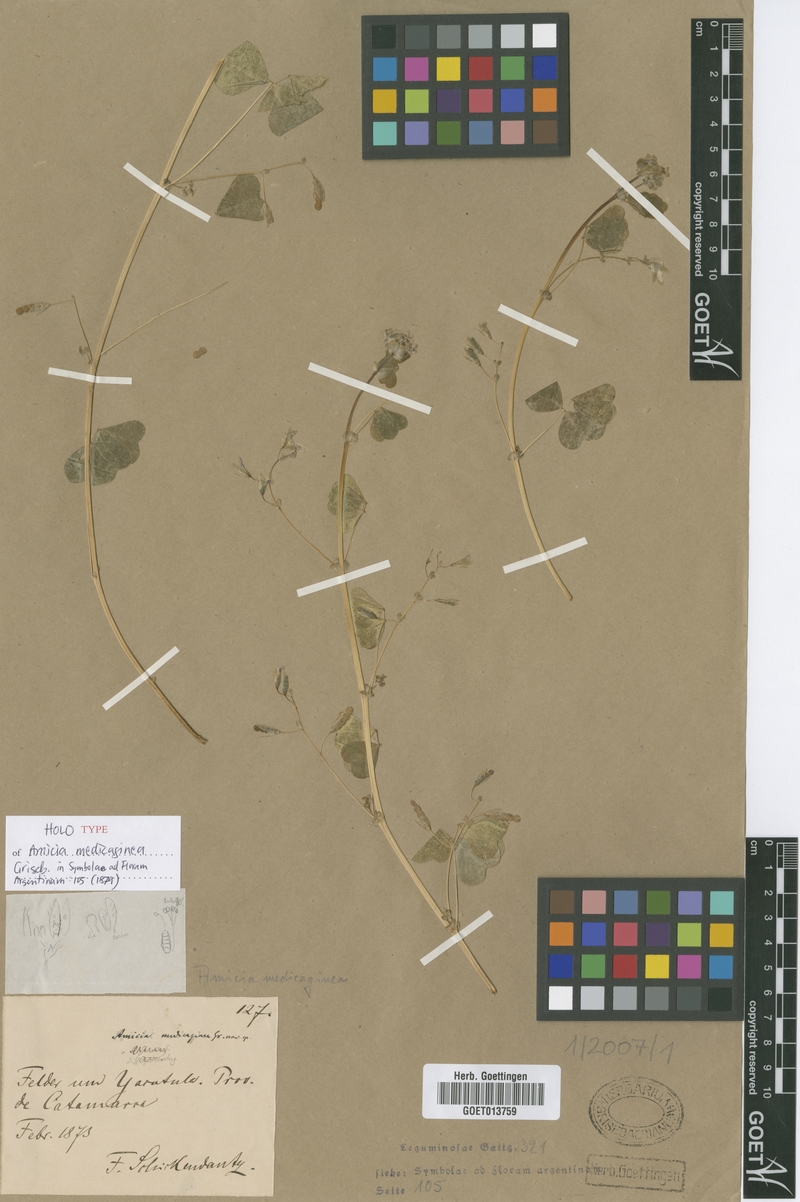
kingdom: Plantae
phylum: Tracheophyta
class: Magnoliopsida
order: Fabales
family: Fabaceae
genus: Amicia
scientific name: Amicia medicaginea
